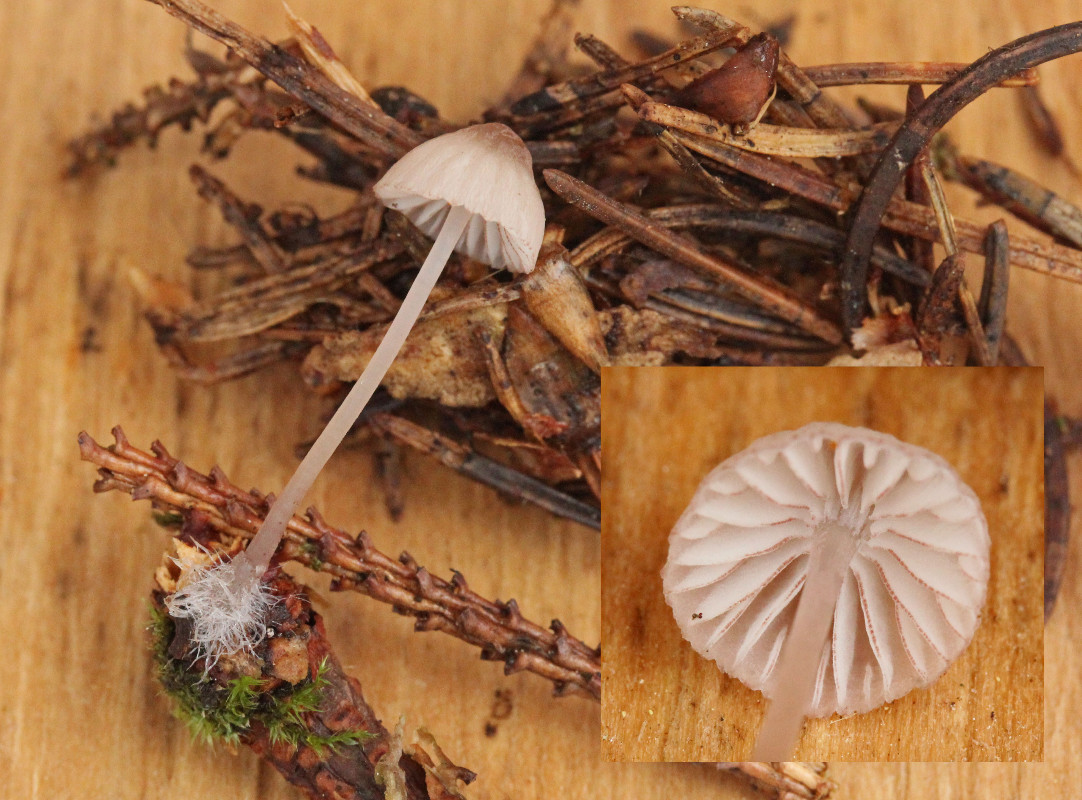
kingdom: Fungi
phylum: Basidiomycota
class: Agaricomycetes
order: Agaricales
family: Mycenaceae
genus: Mycena
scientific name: Mycena rubromarginata
